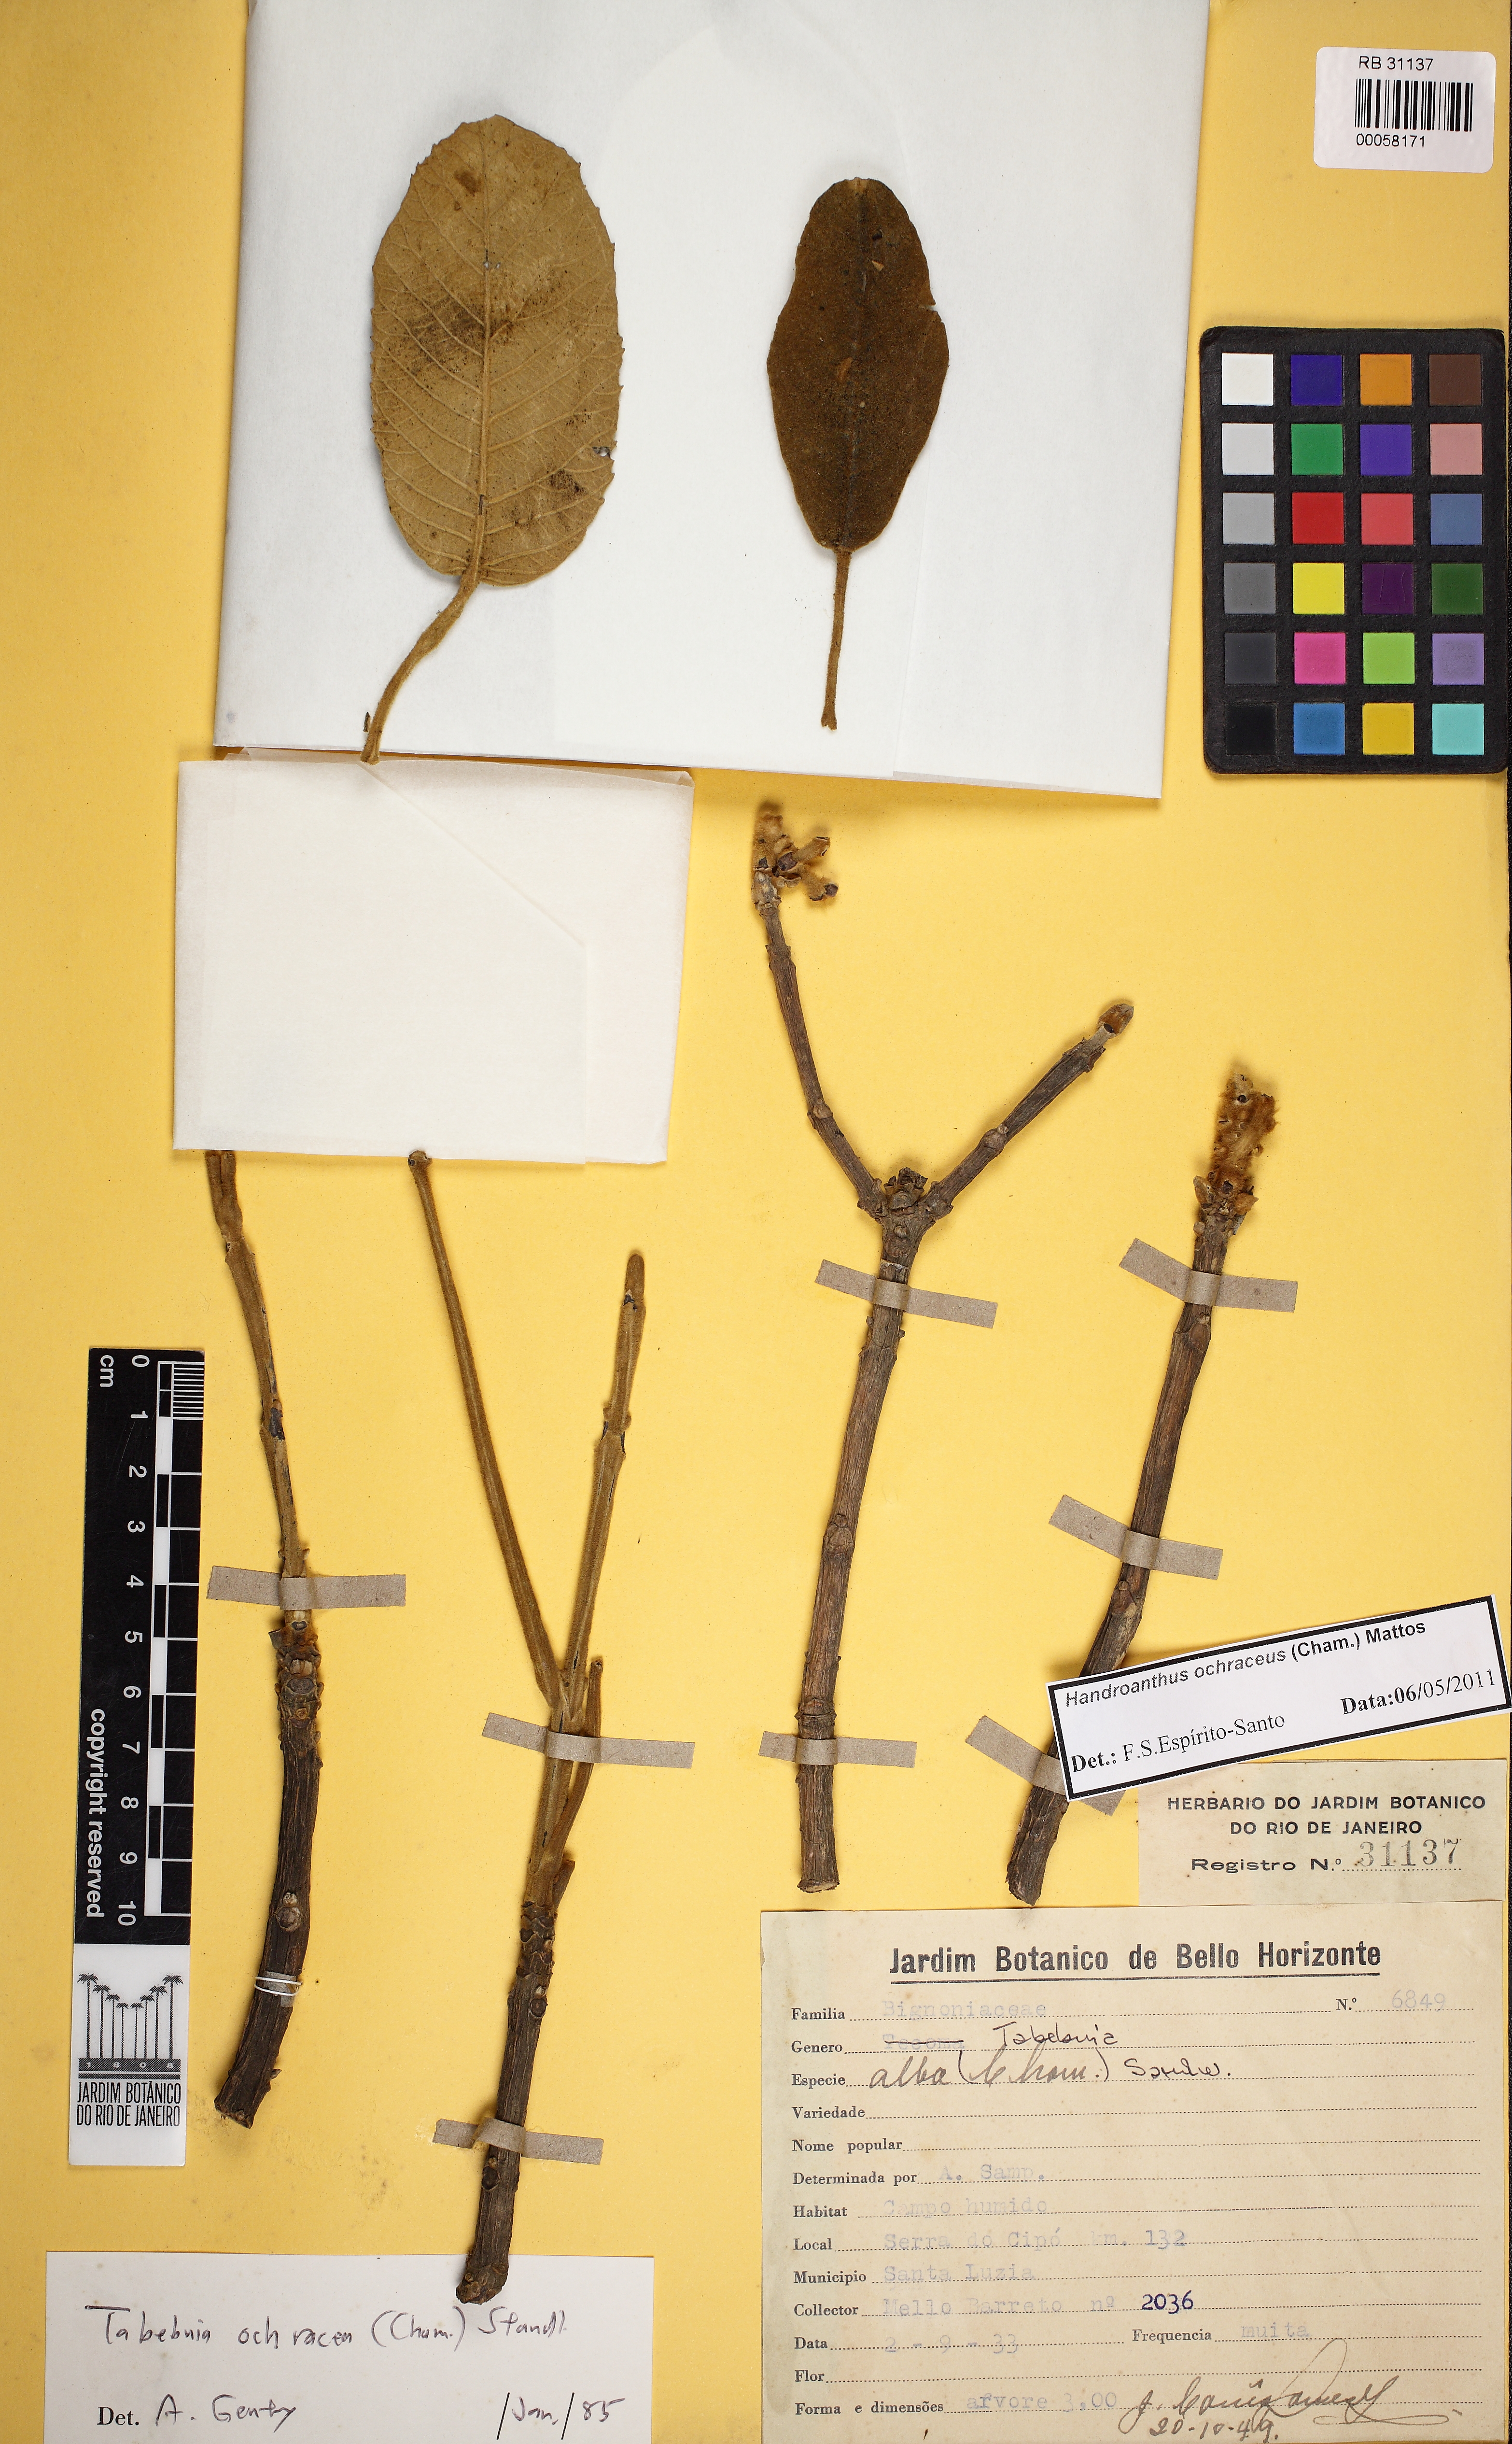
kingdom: Plantae
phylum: Tracheophyta
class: Magnoliopsida
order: Lamiales
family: Bignoniaceae
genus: Handroanthus
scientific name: Handroanthus ochraceus
